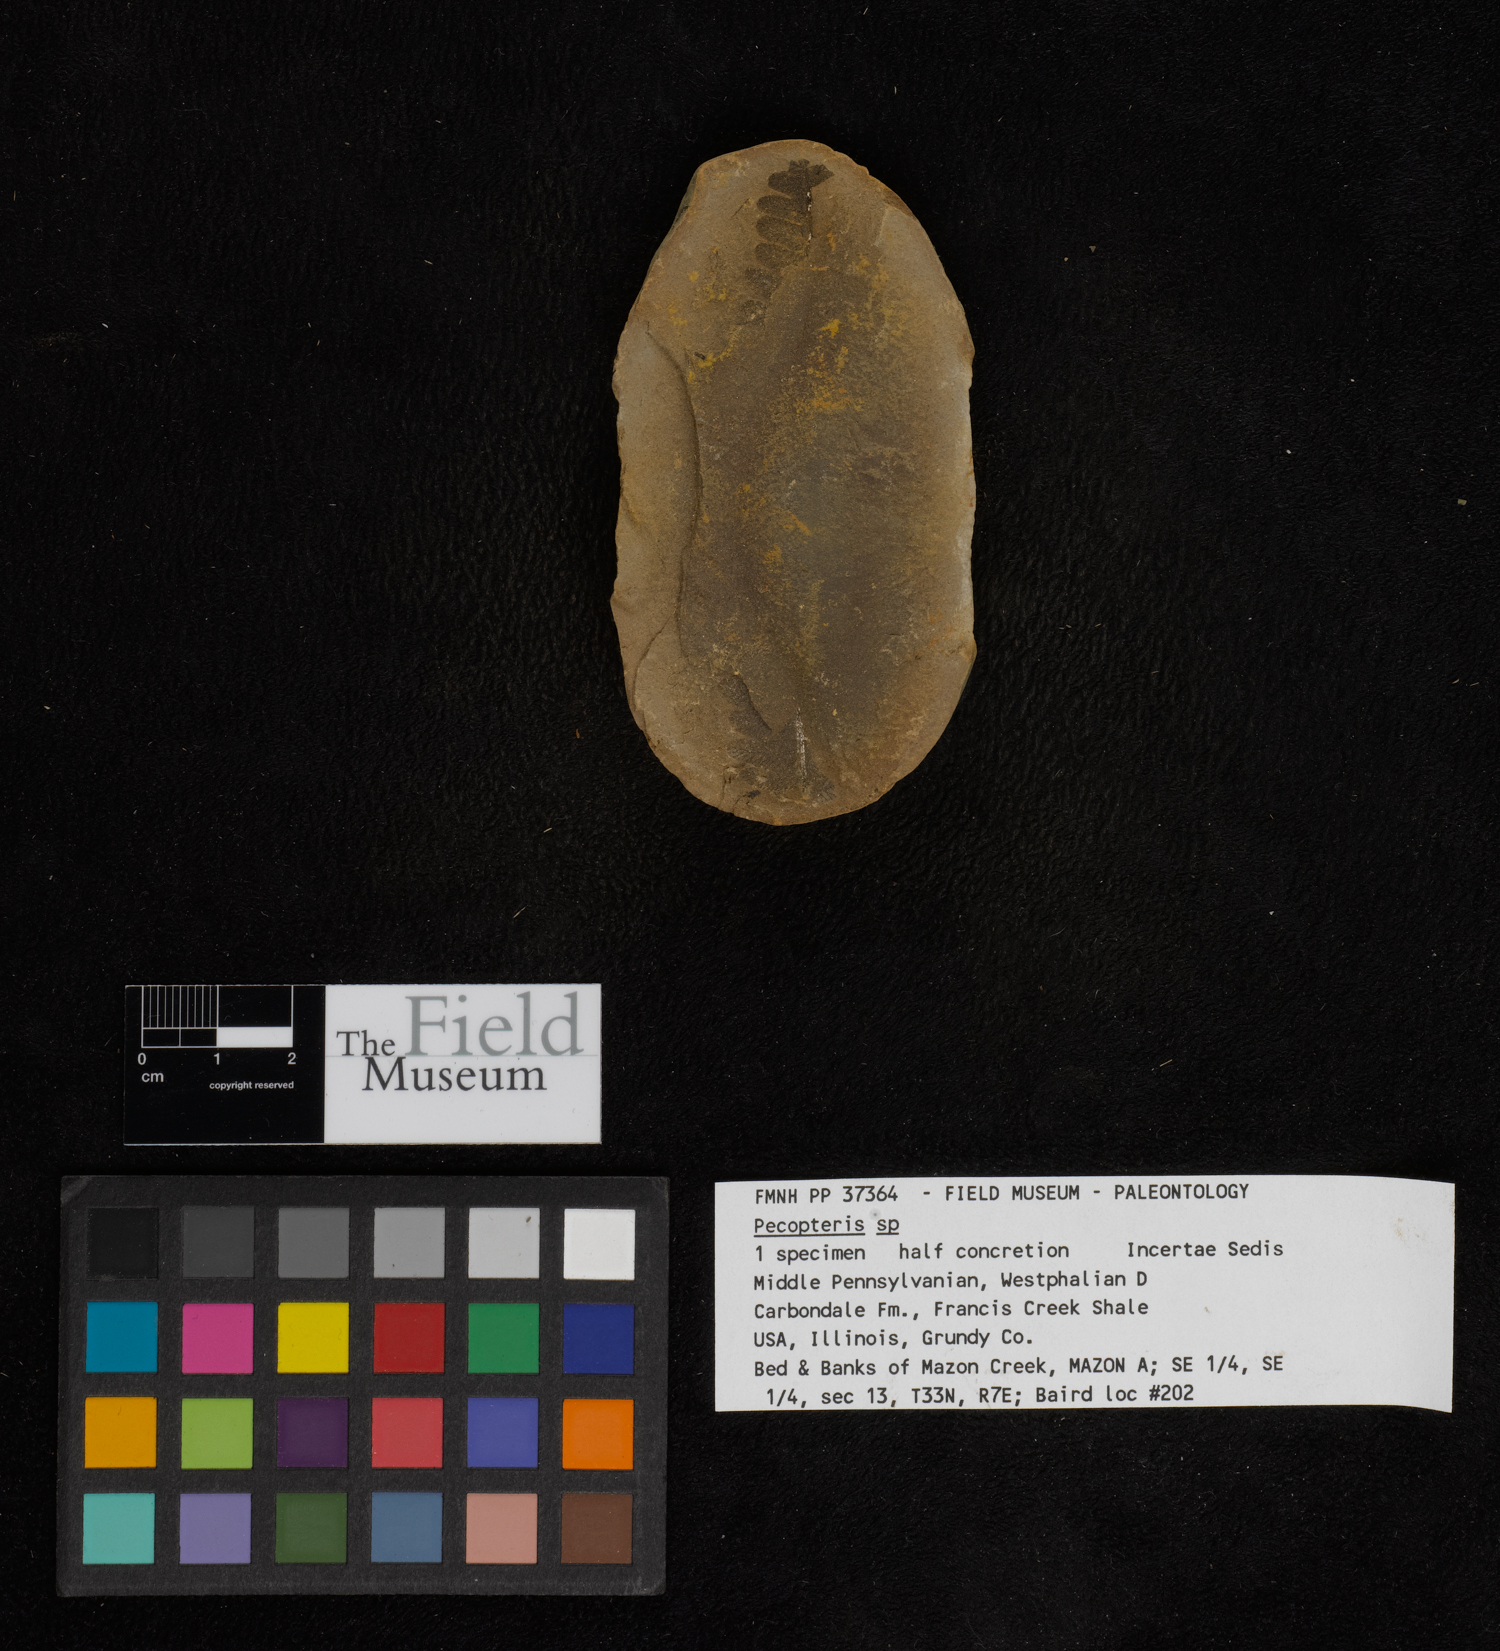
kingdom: Plantae
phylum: Tracheophyta
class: Polypodiopsida
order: Marattiales
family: Asterothecaceae
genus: Pecopteris
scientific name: Pecopteris
